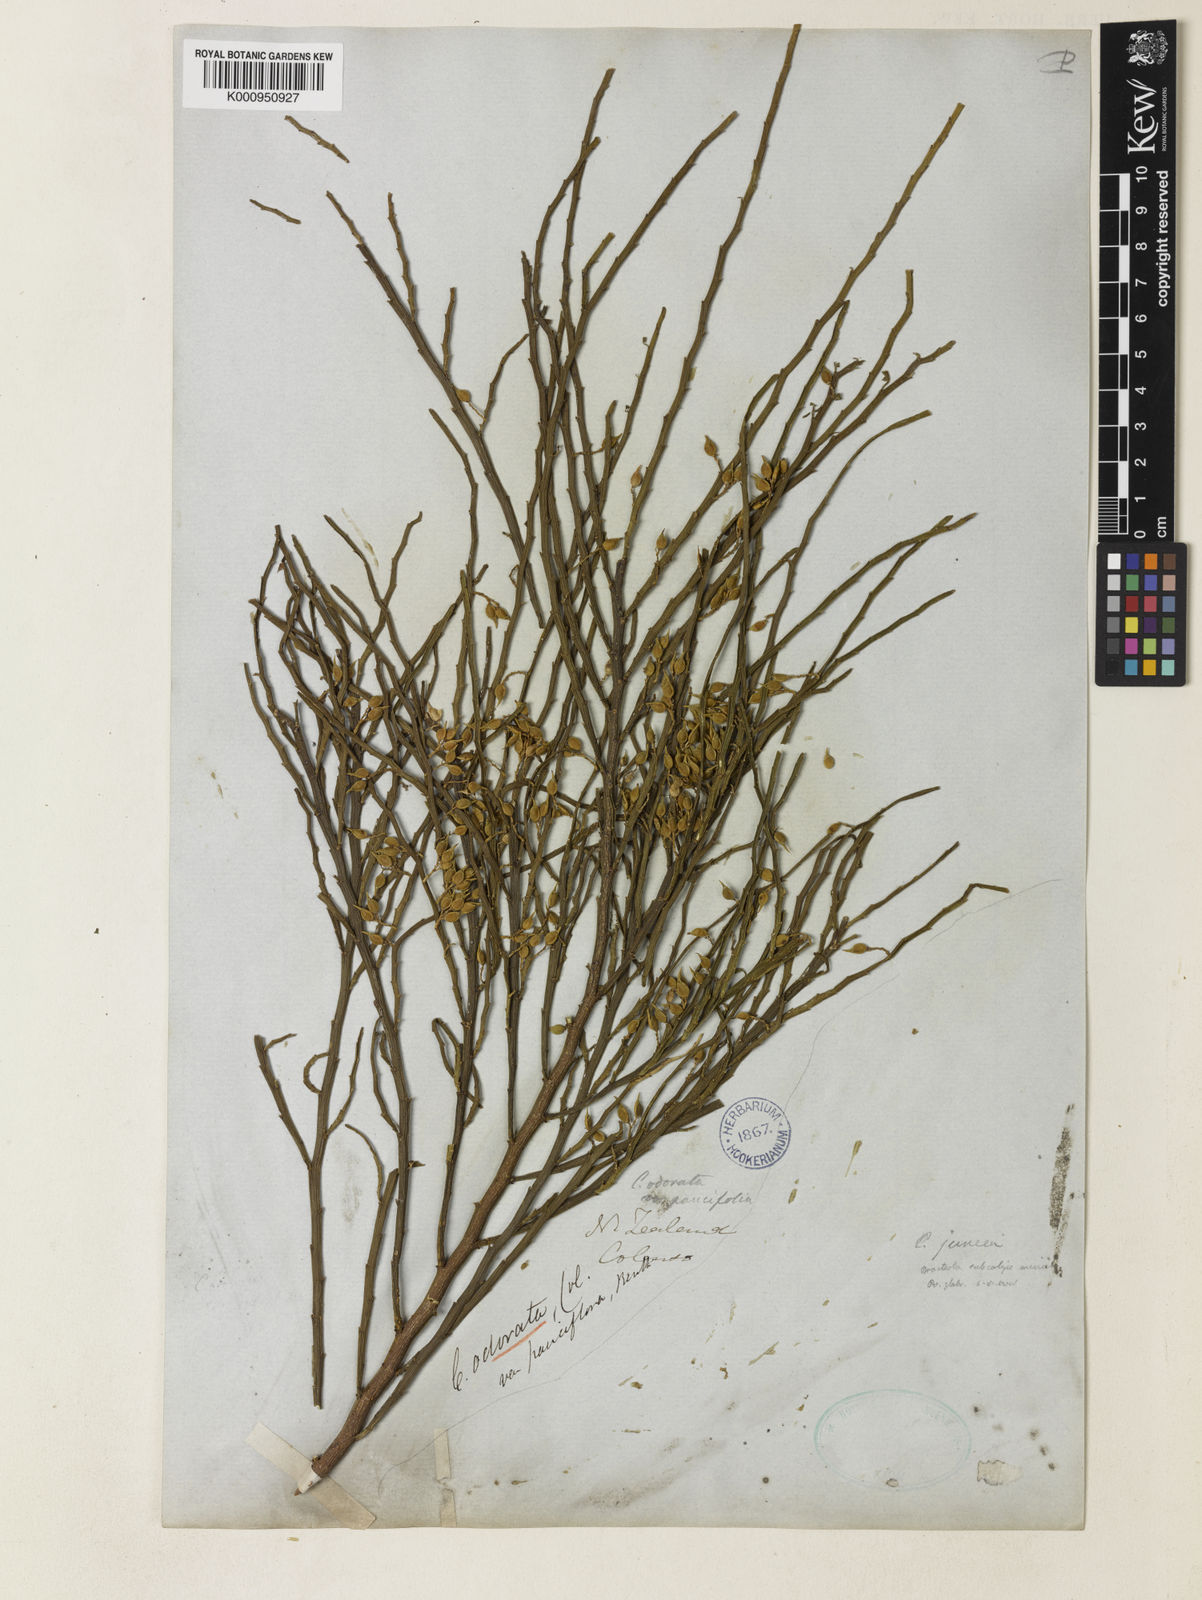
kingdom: Plantae
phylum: Tracheophyta
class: Magnoliopsida
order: Fabales
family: Fabaceae
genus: Carmichaelia
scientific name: Carmichaelia odorata
